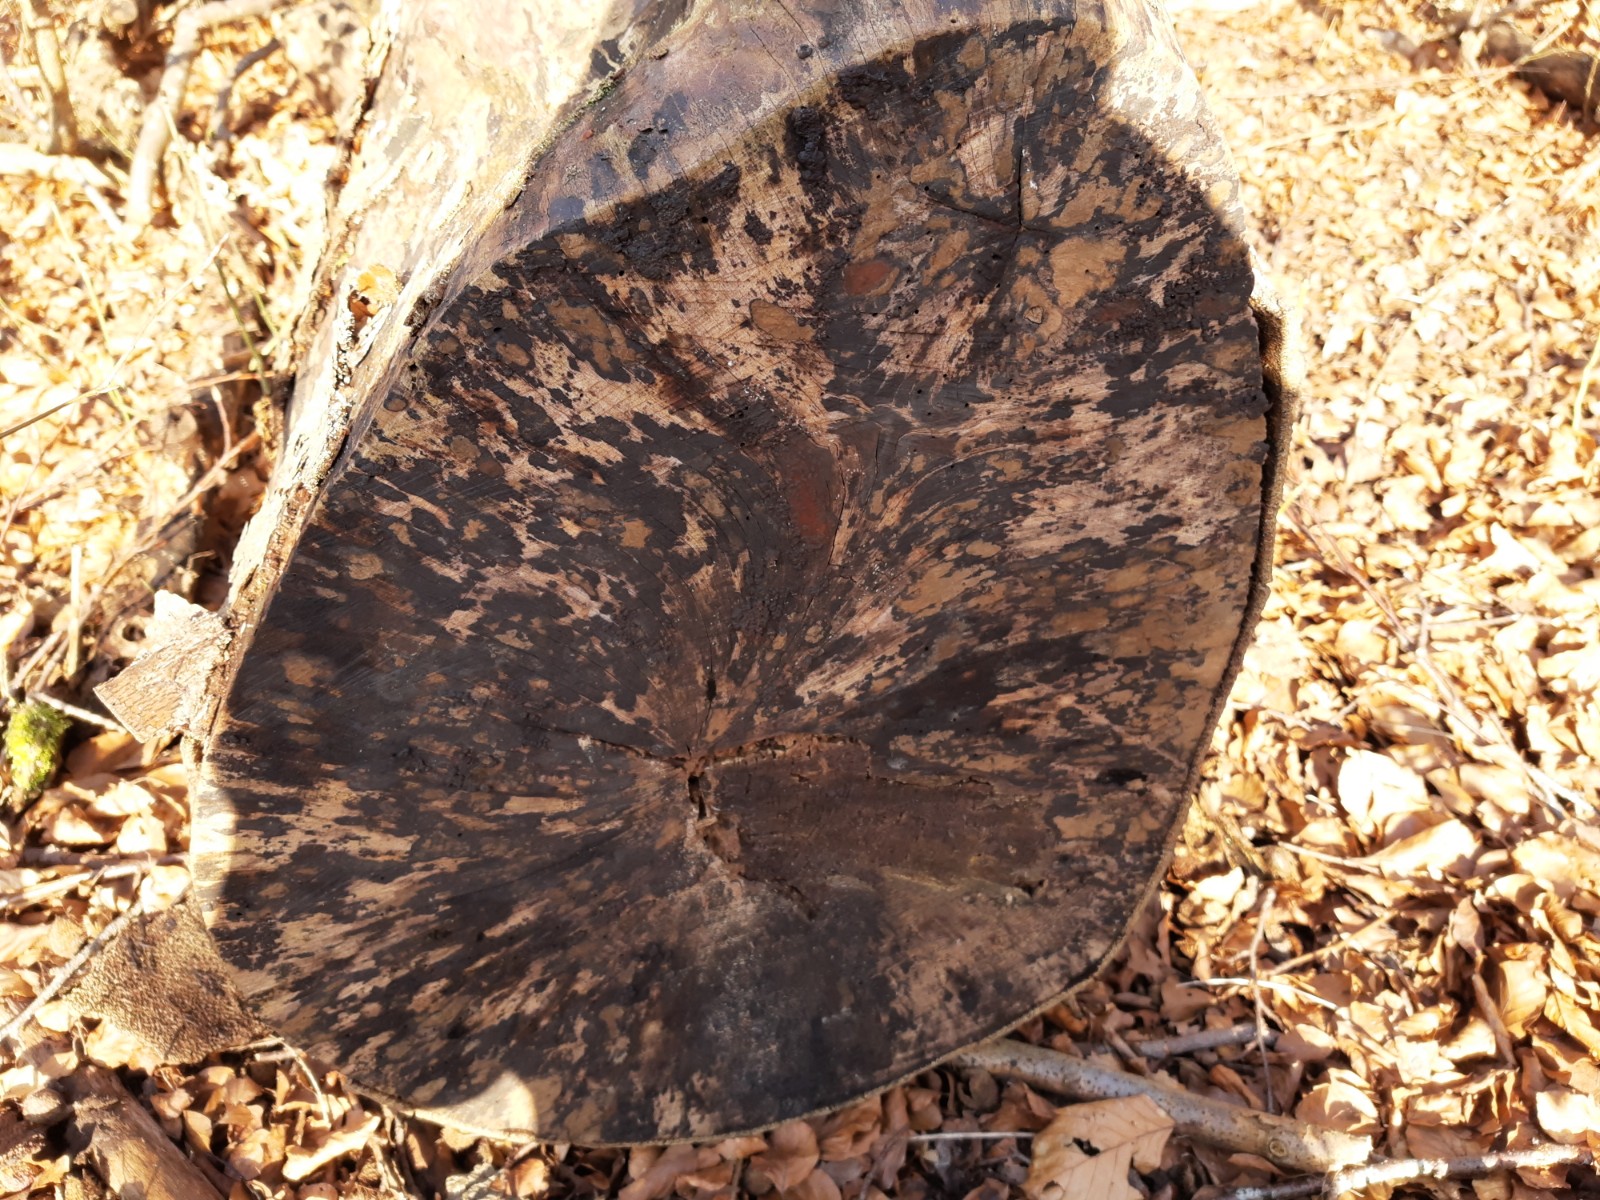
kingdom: Fungi
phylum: Ascomycota
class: Leotiomycetes
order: Helotiales
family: Helotiaceae
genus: Bispora
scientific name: Bispora pallescens
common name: måtte-snitskive
